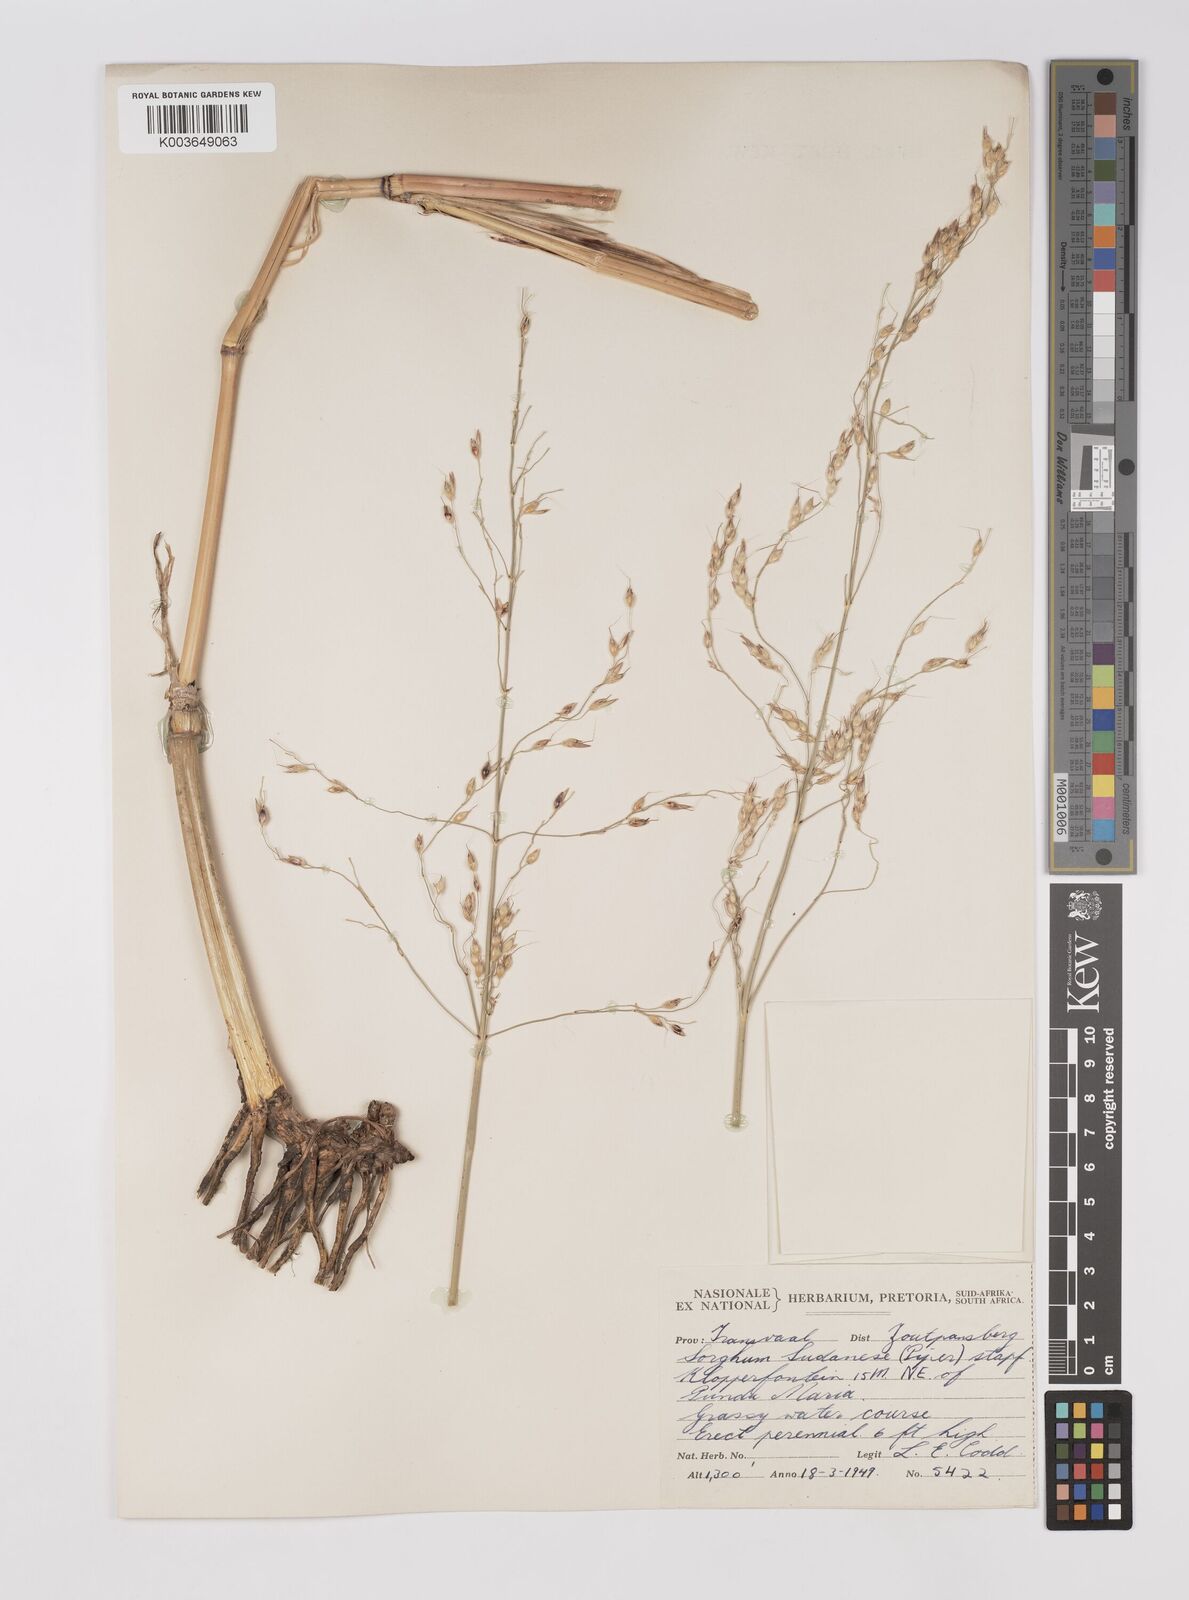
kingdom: Plantae
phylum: Tracheophyta
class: Liliopsida
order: Poales
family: Poaceae
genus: Sorghum
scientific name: Sorghum drummondii
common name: Sudangrass
